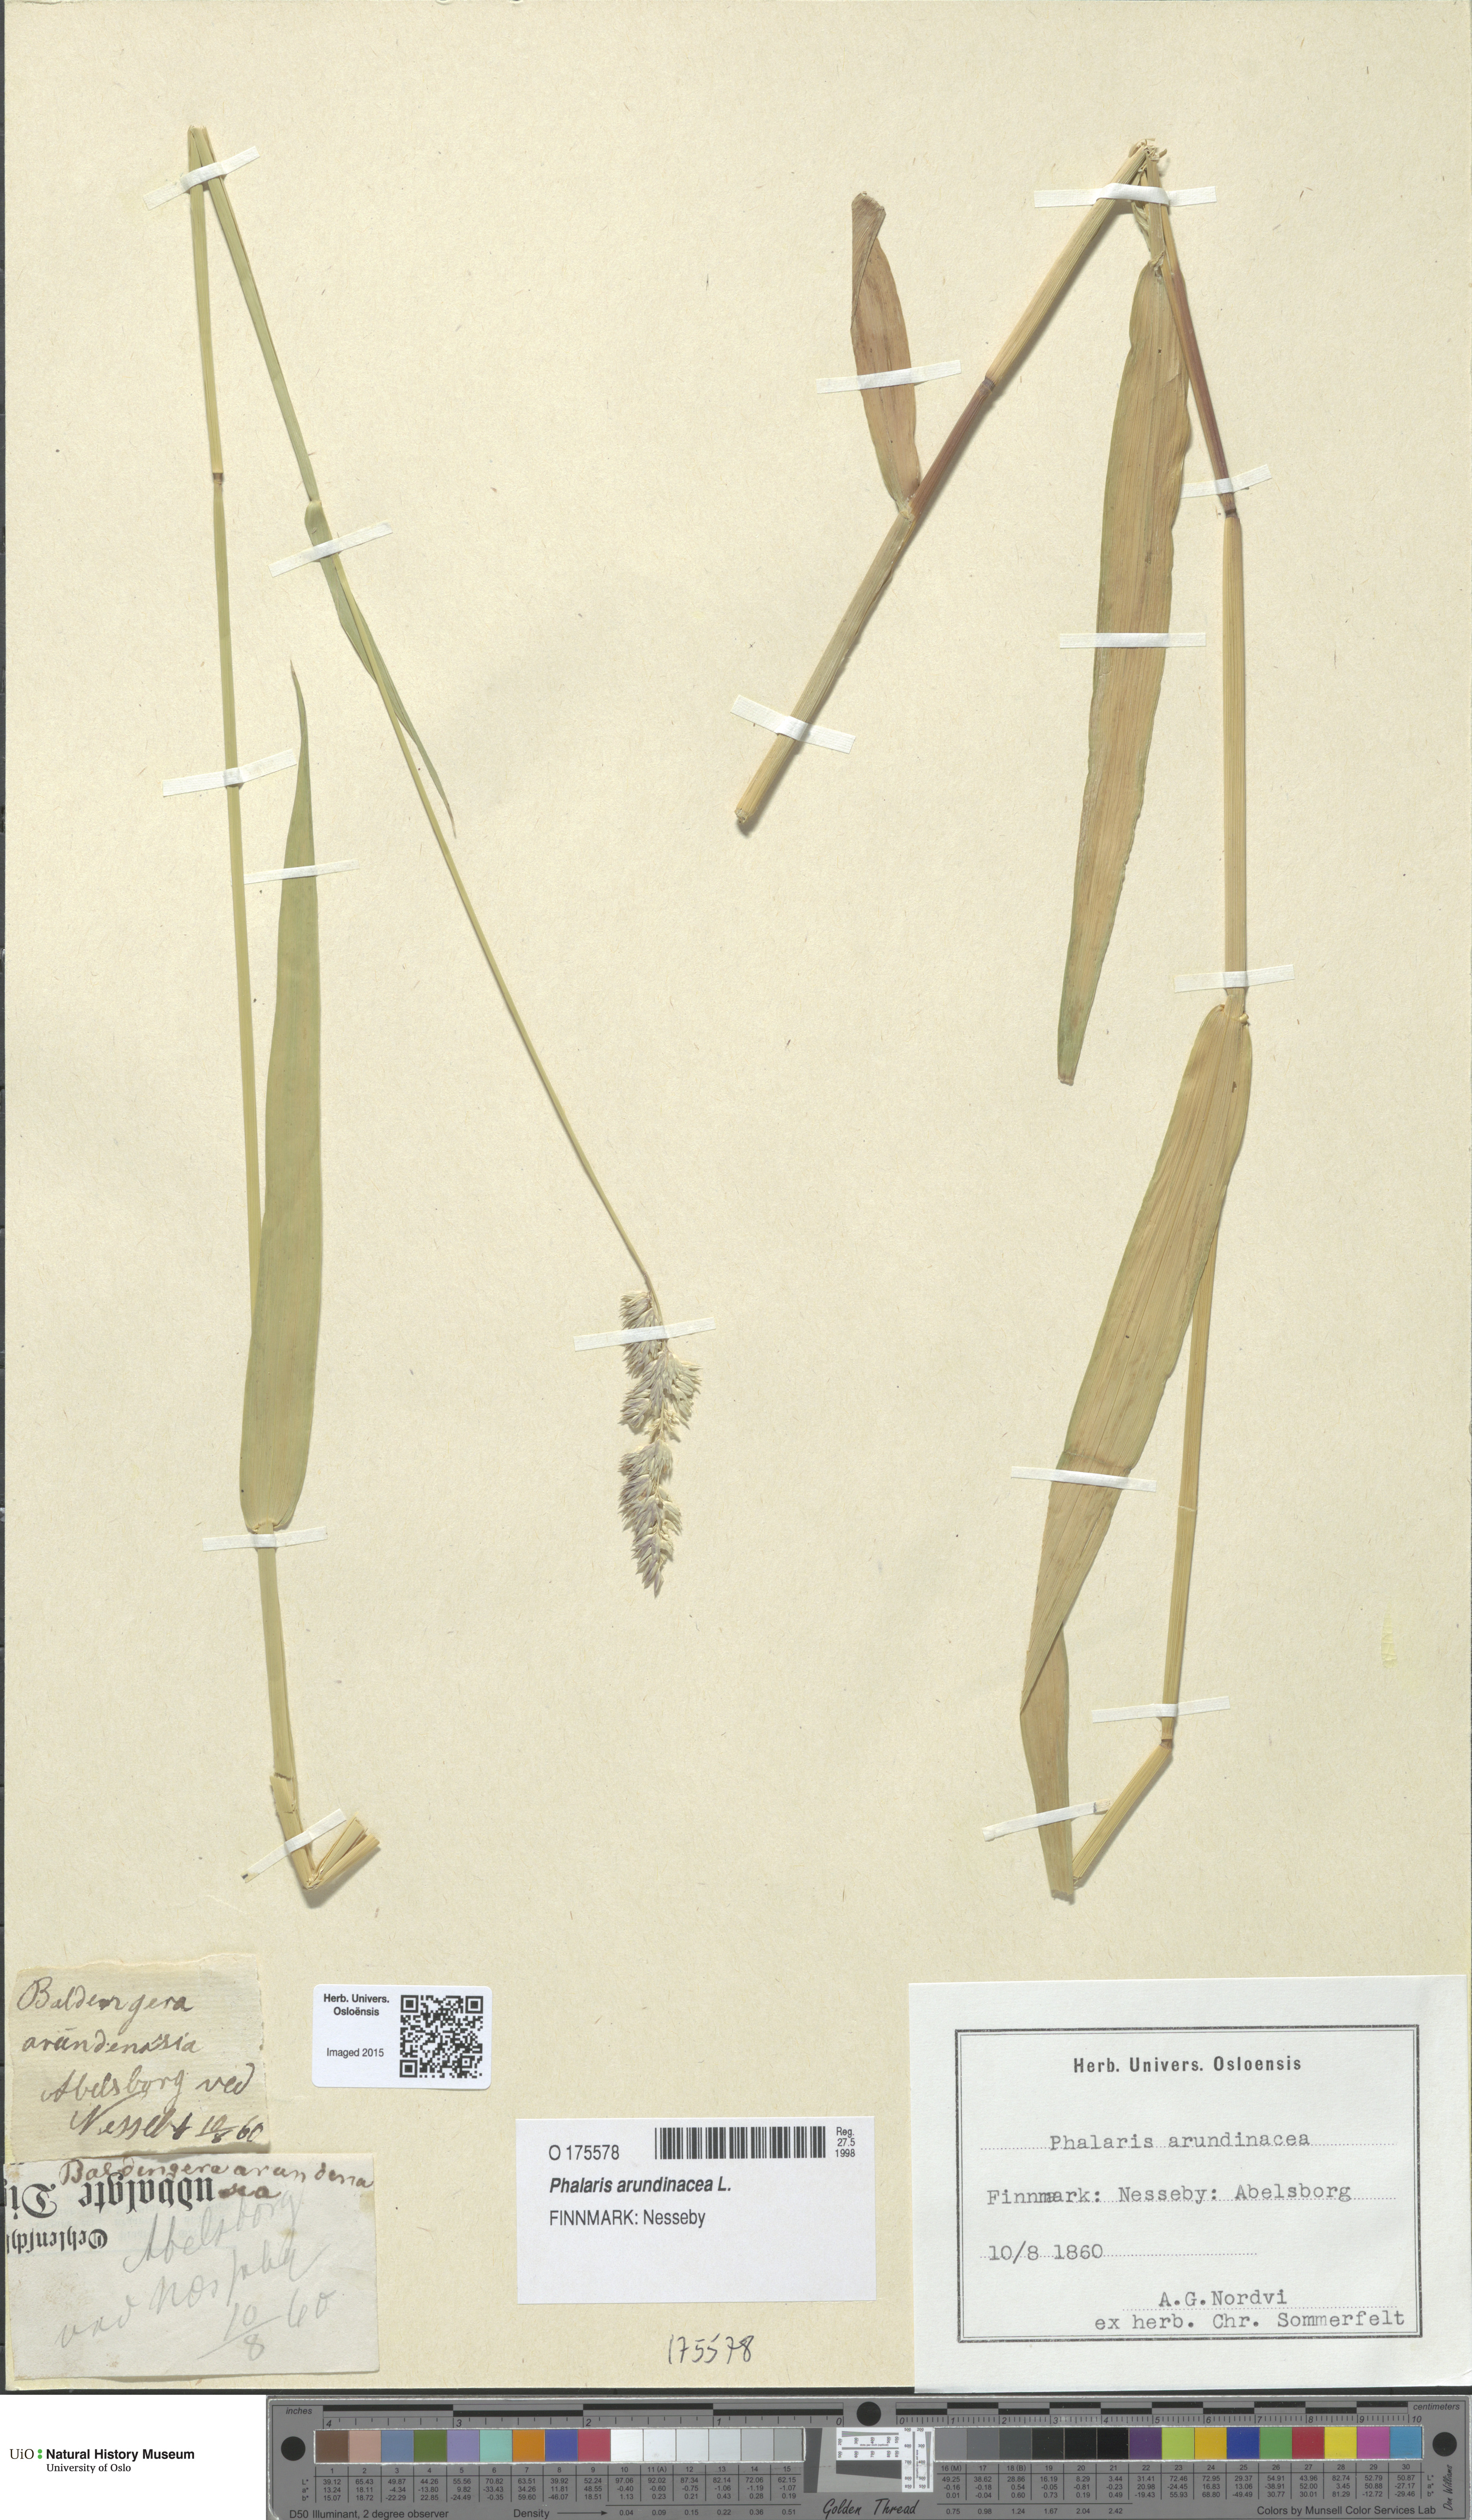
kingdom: Plantae
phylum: Tracheophyta
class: Liliopsida
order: Poales
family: Poaceae
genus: Phalaris
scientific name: Phalaris arundinacea
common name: Reed canary-grass
